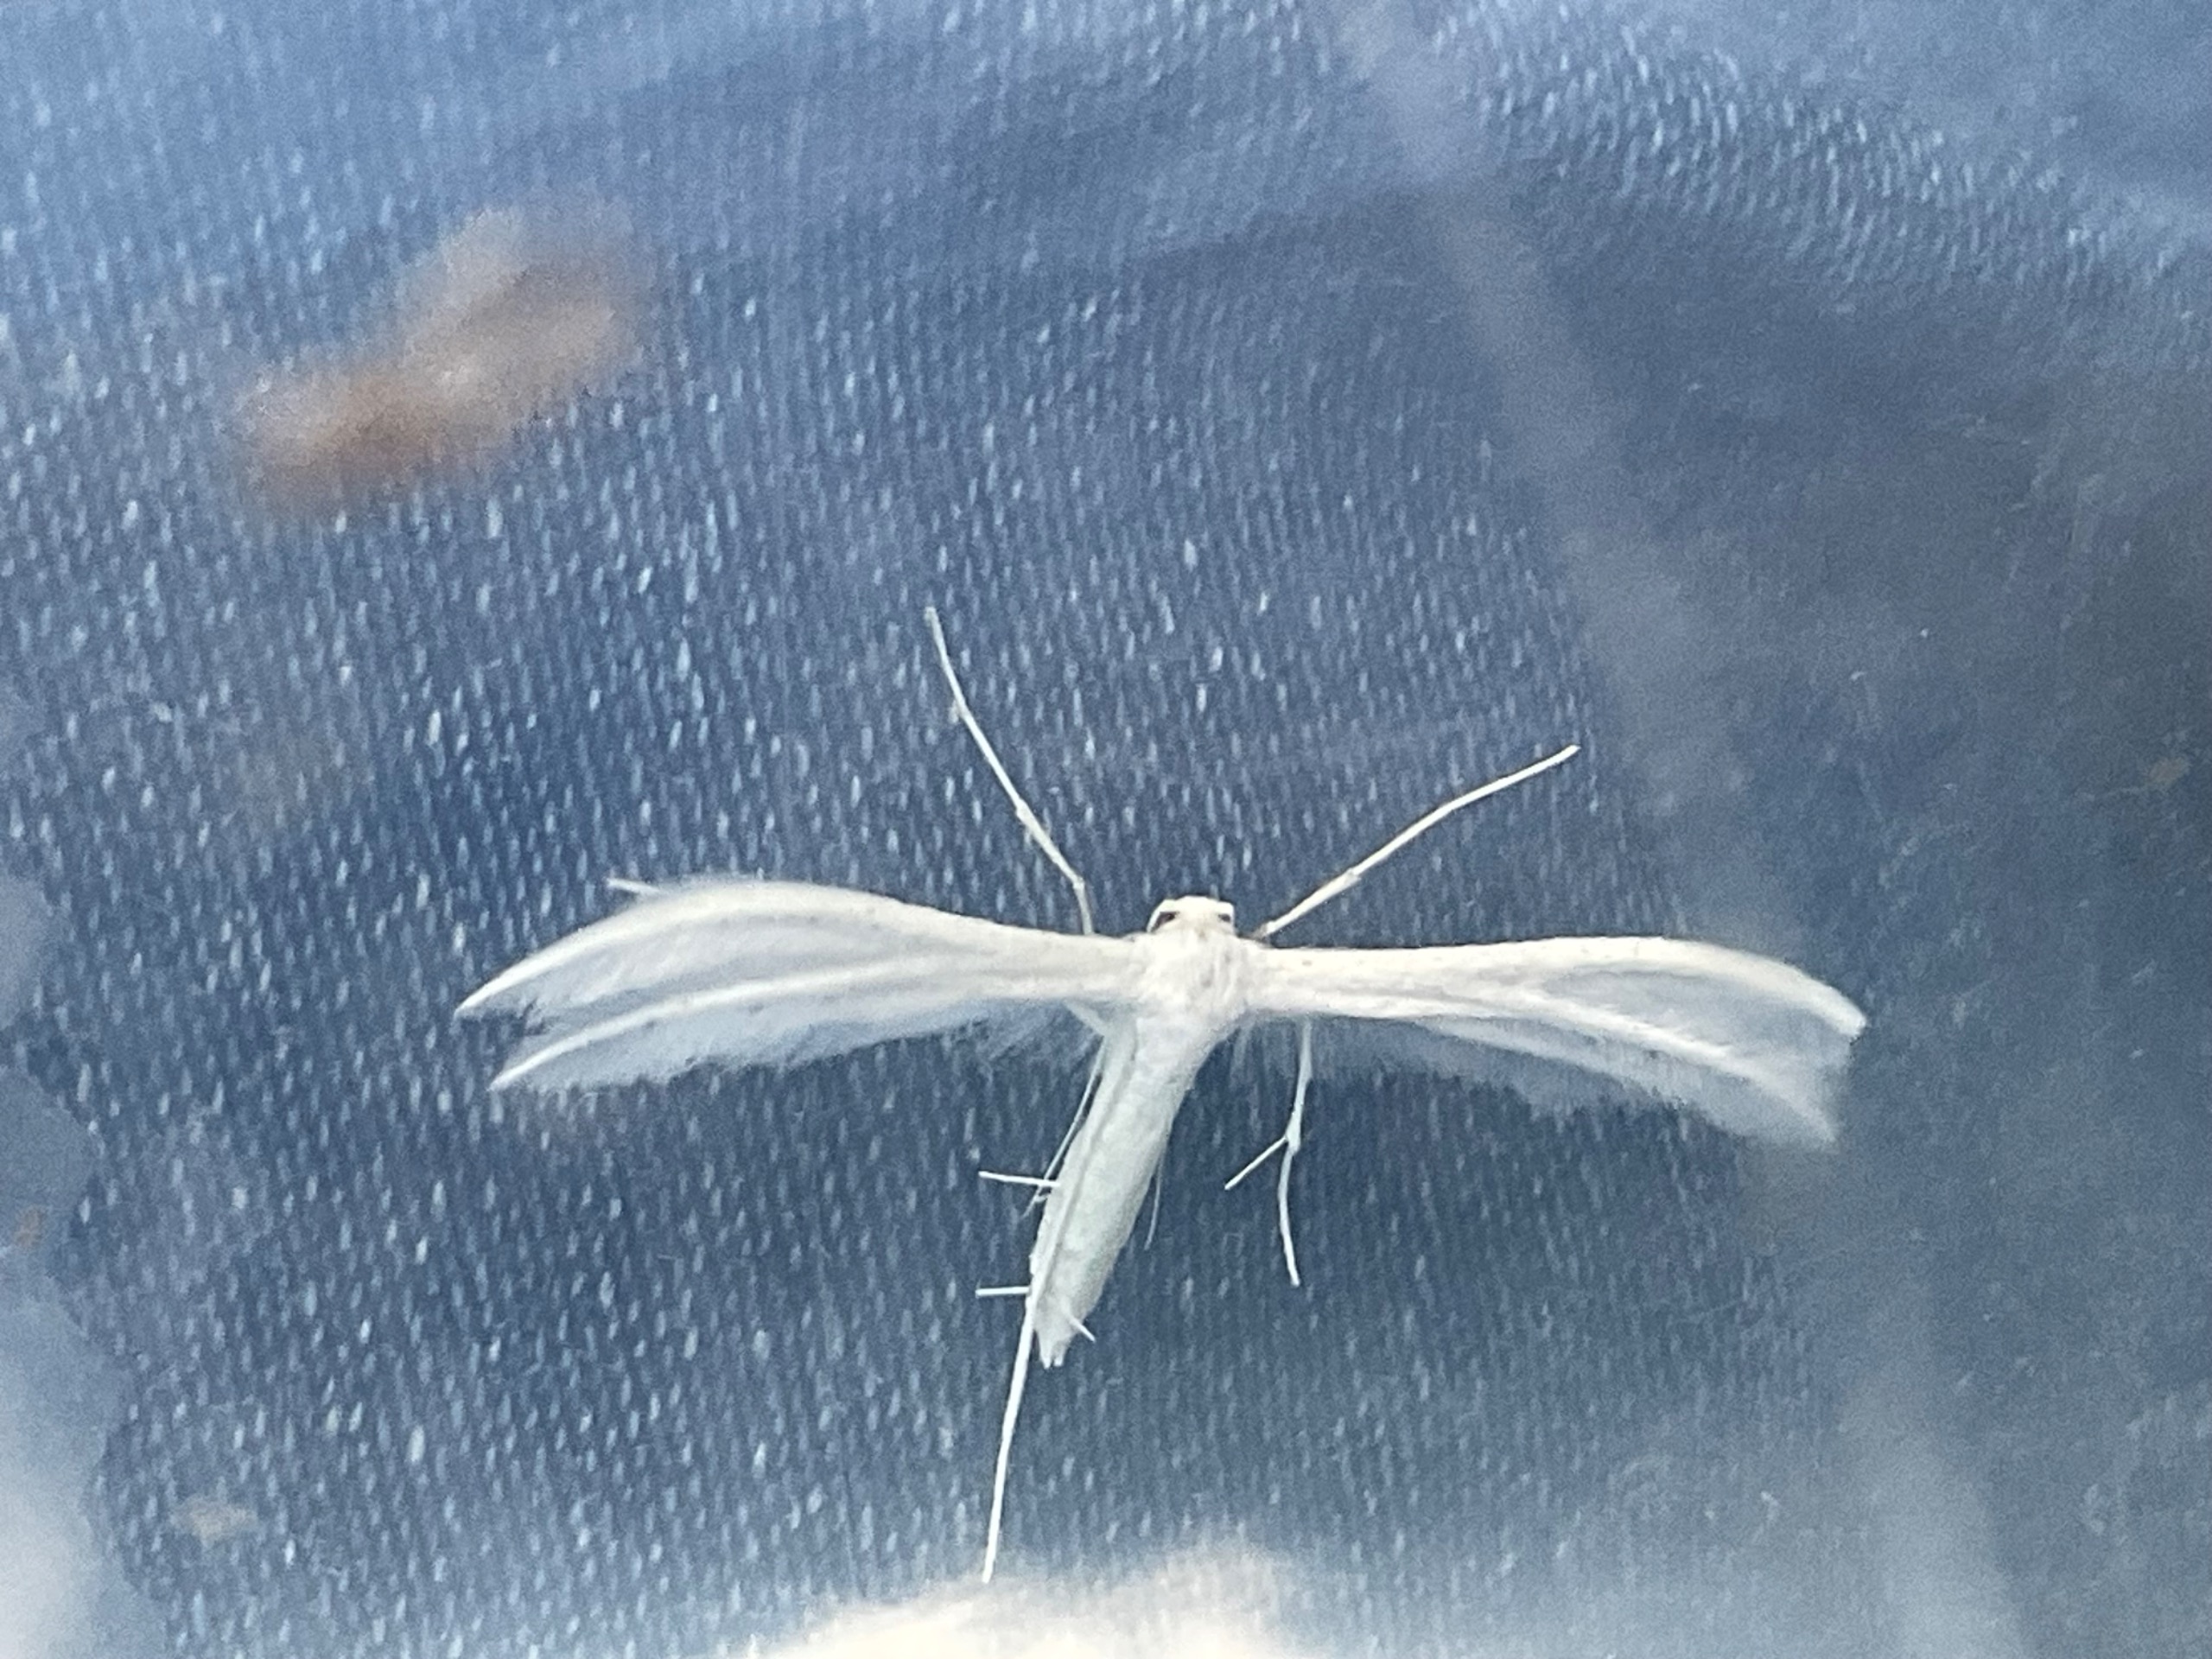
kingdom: Animalia
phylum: Arthropoda
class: Insecta
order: Lepidoptera
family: Pterophoridae
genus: Pterophorus
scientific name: Pterophorus pentadactyla
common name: Hvidt fjermøl
